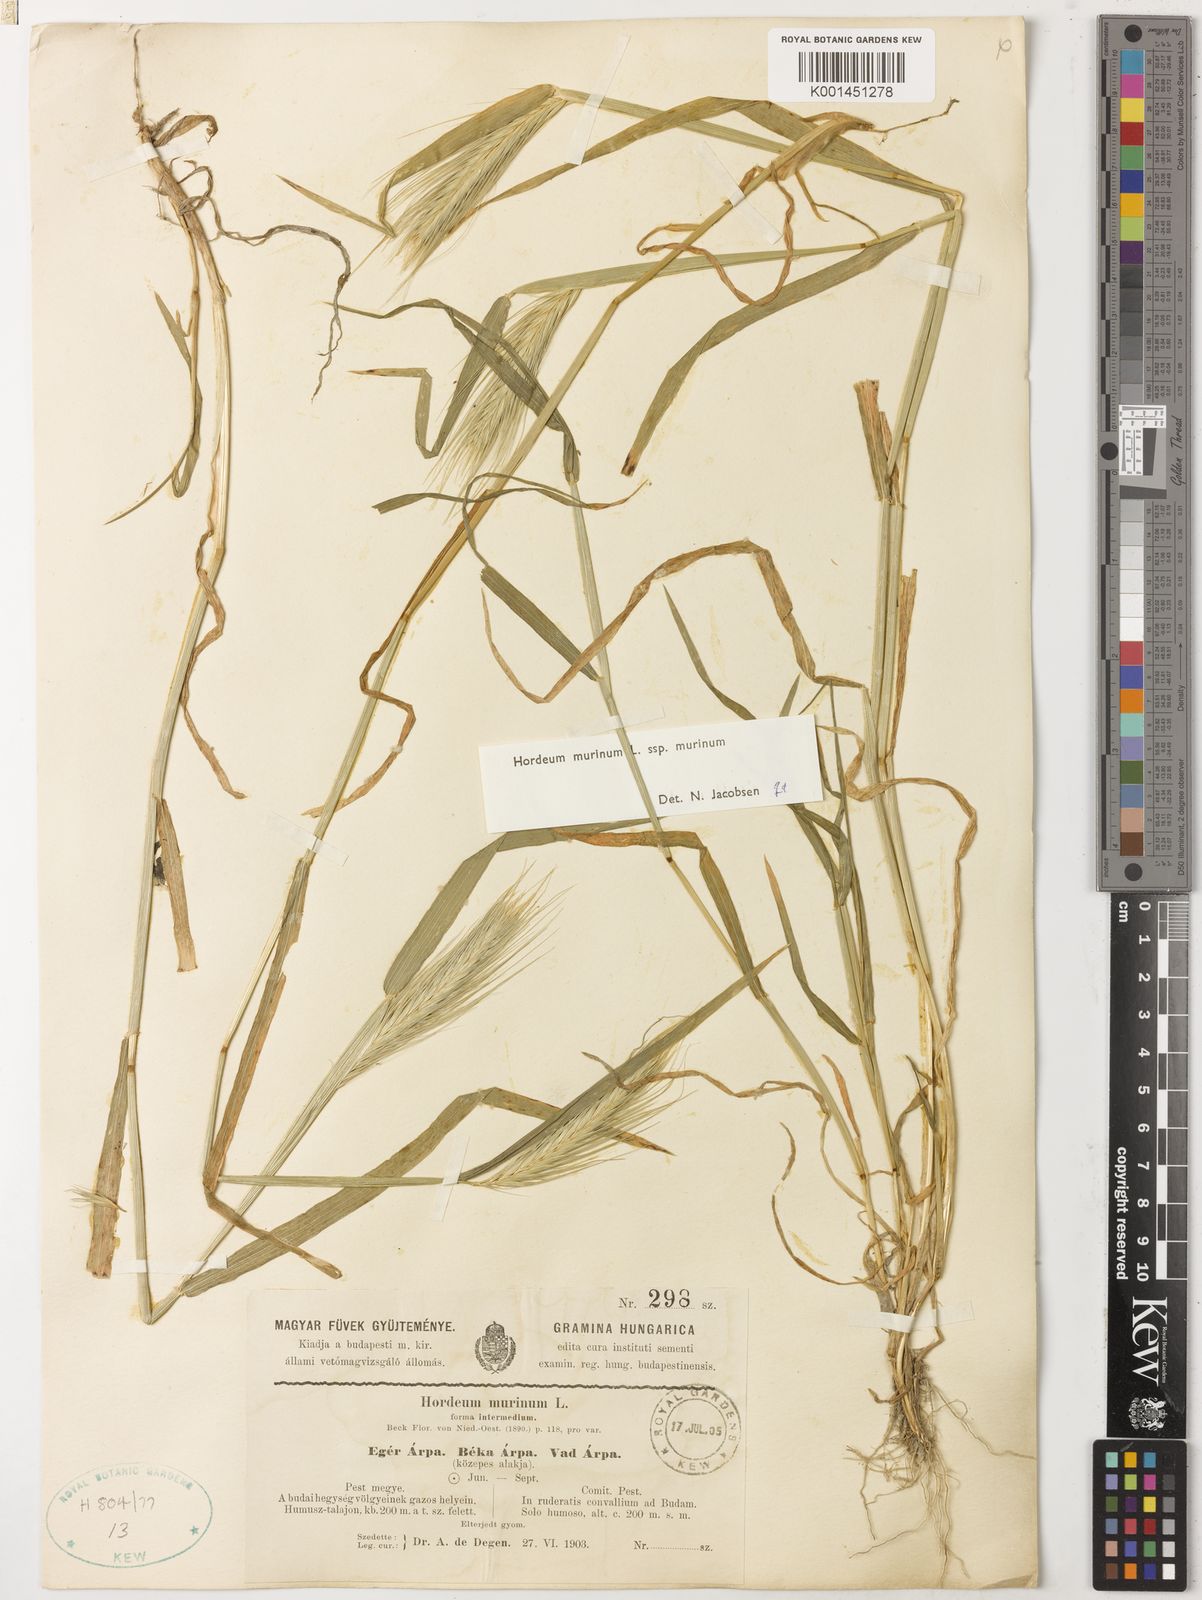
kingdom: Plantae
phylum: Tracheophyta
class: Liliopsida
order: Poales
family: Poaceae
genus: Hordeum
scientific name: Hordeum murinum
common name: Wall barley
